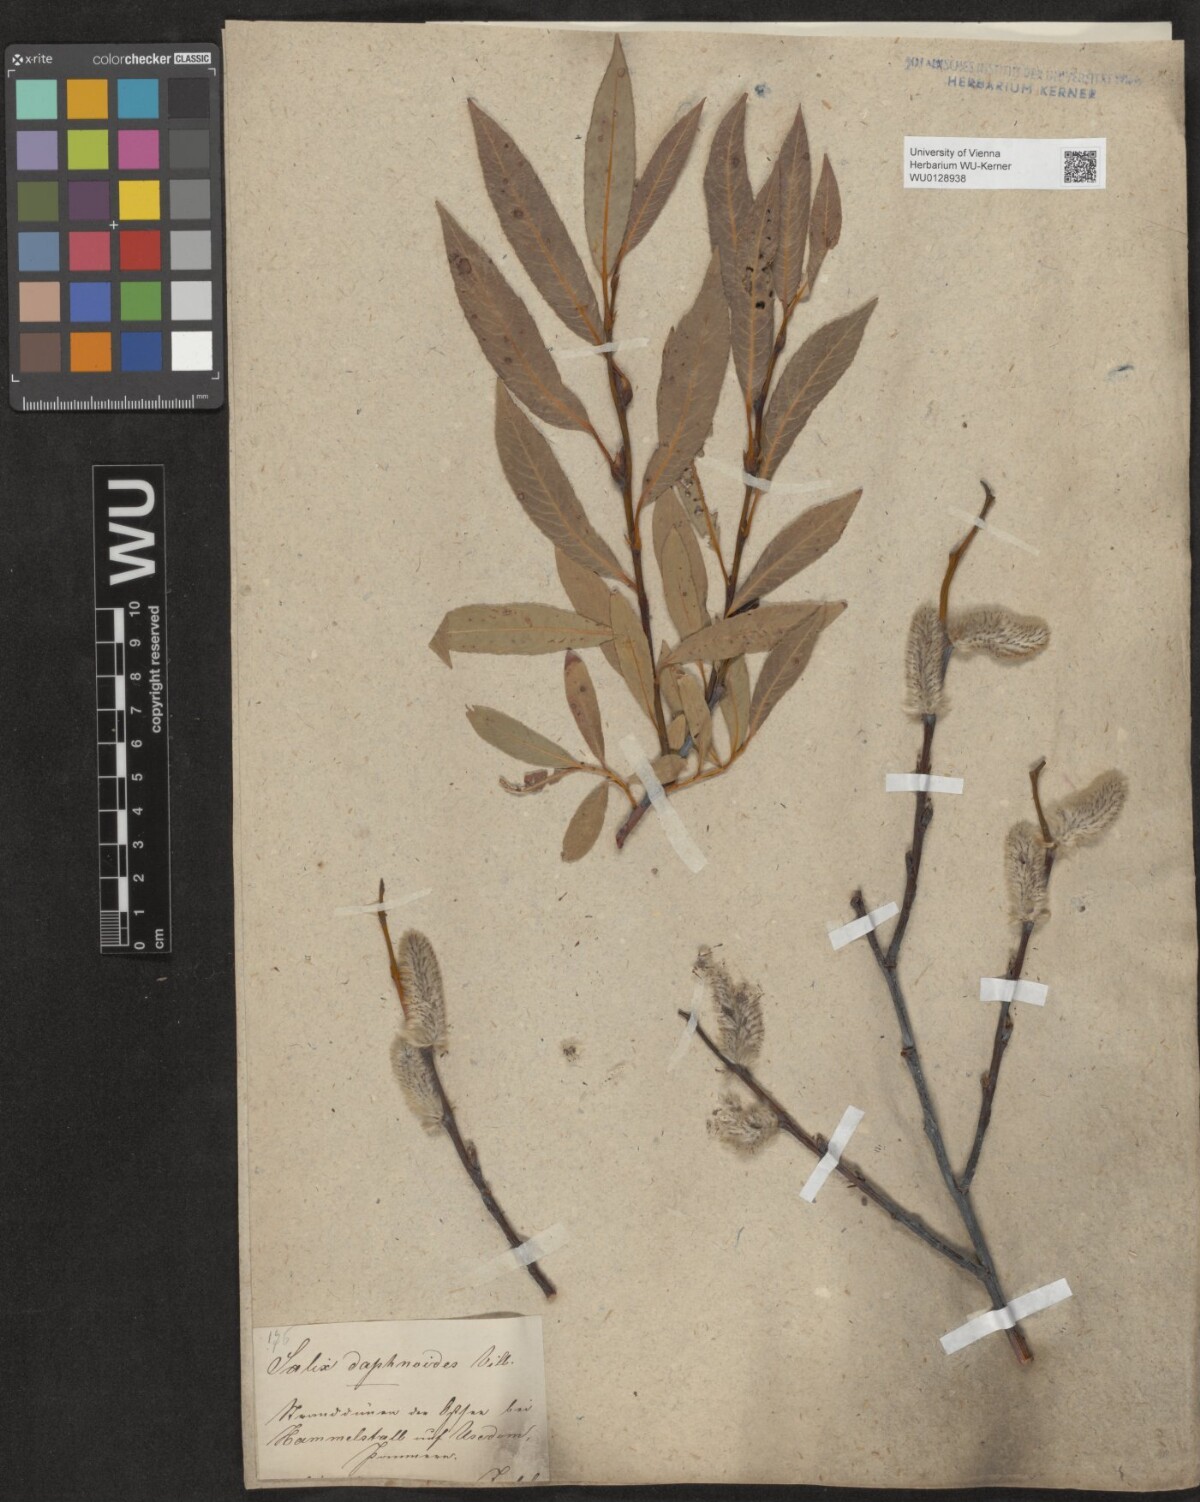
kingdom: Plantae
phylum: Tracheophyta
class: Magnoliopsida
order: Malpighiales
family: Salicaceae
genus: Salix
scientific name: Salix daphnoides
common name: European violet-willow
